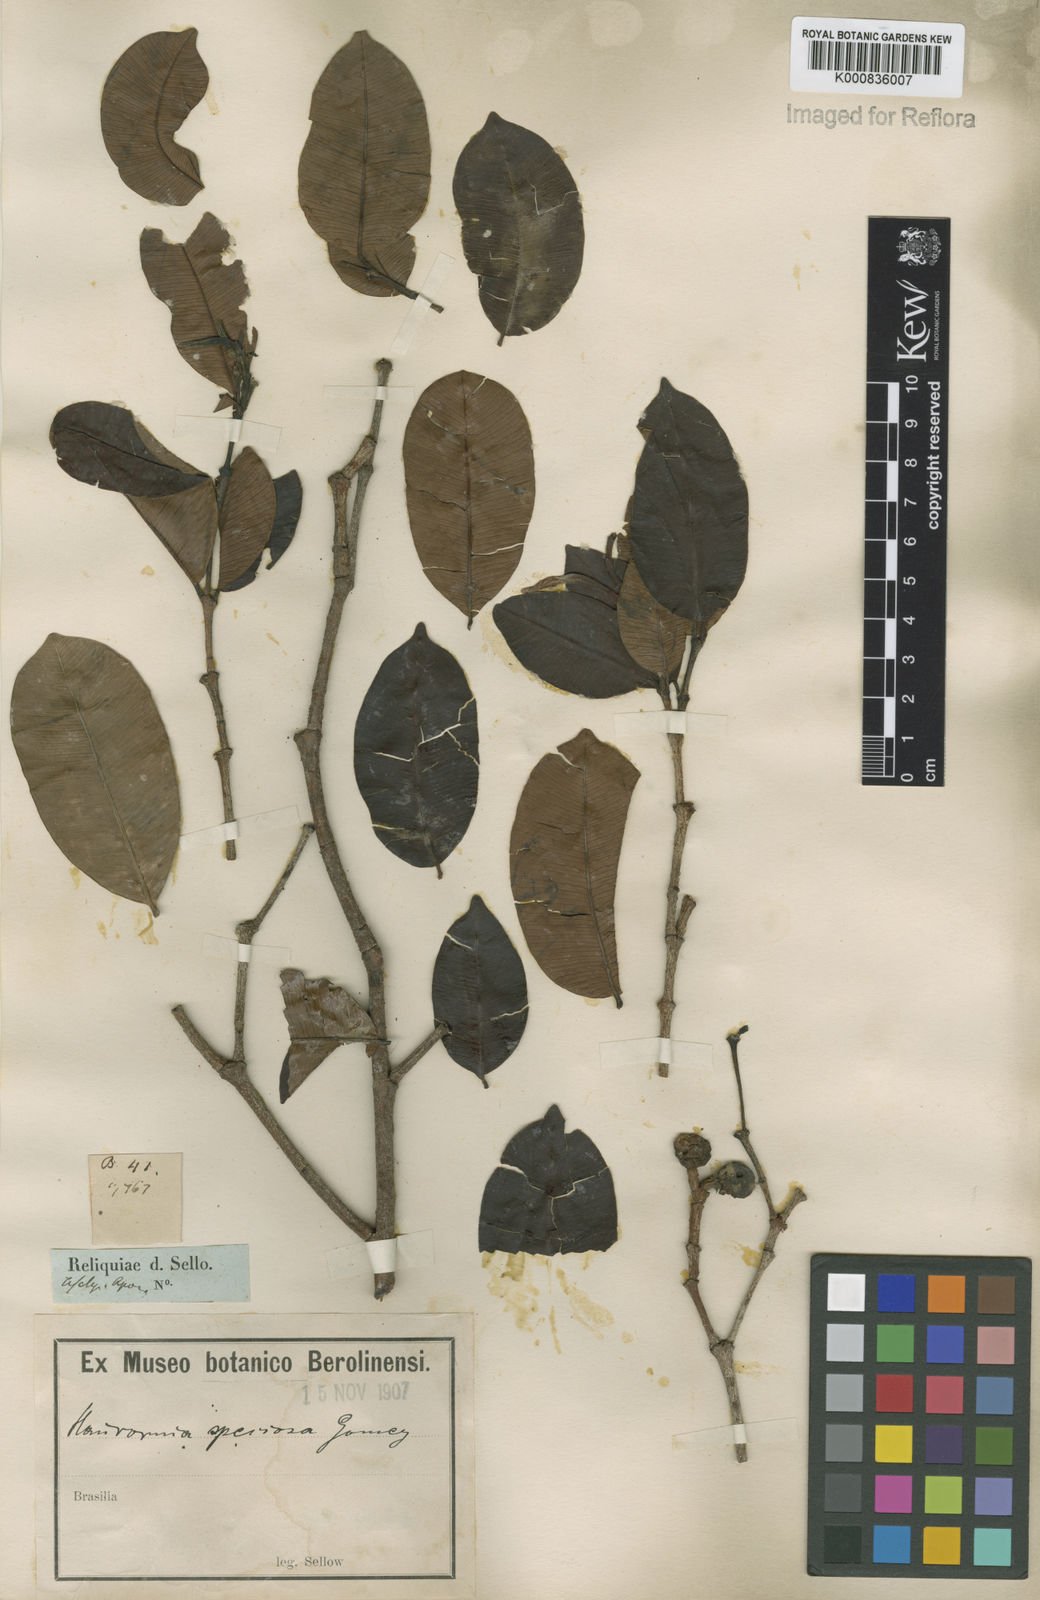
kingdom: Plantae
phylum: Tracheophyta
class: Magnoliopsida
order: Gentianales
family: Apocynaceae
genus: Hancornia
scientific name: Hancornia speciosa
